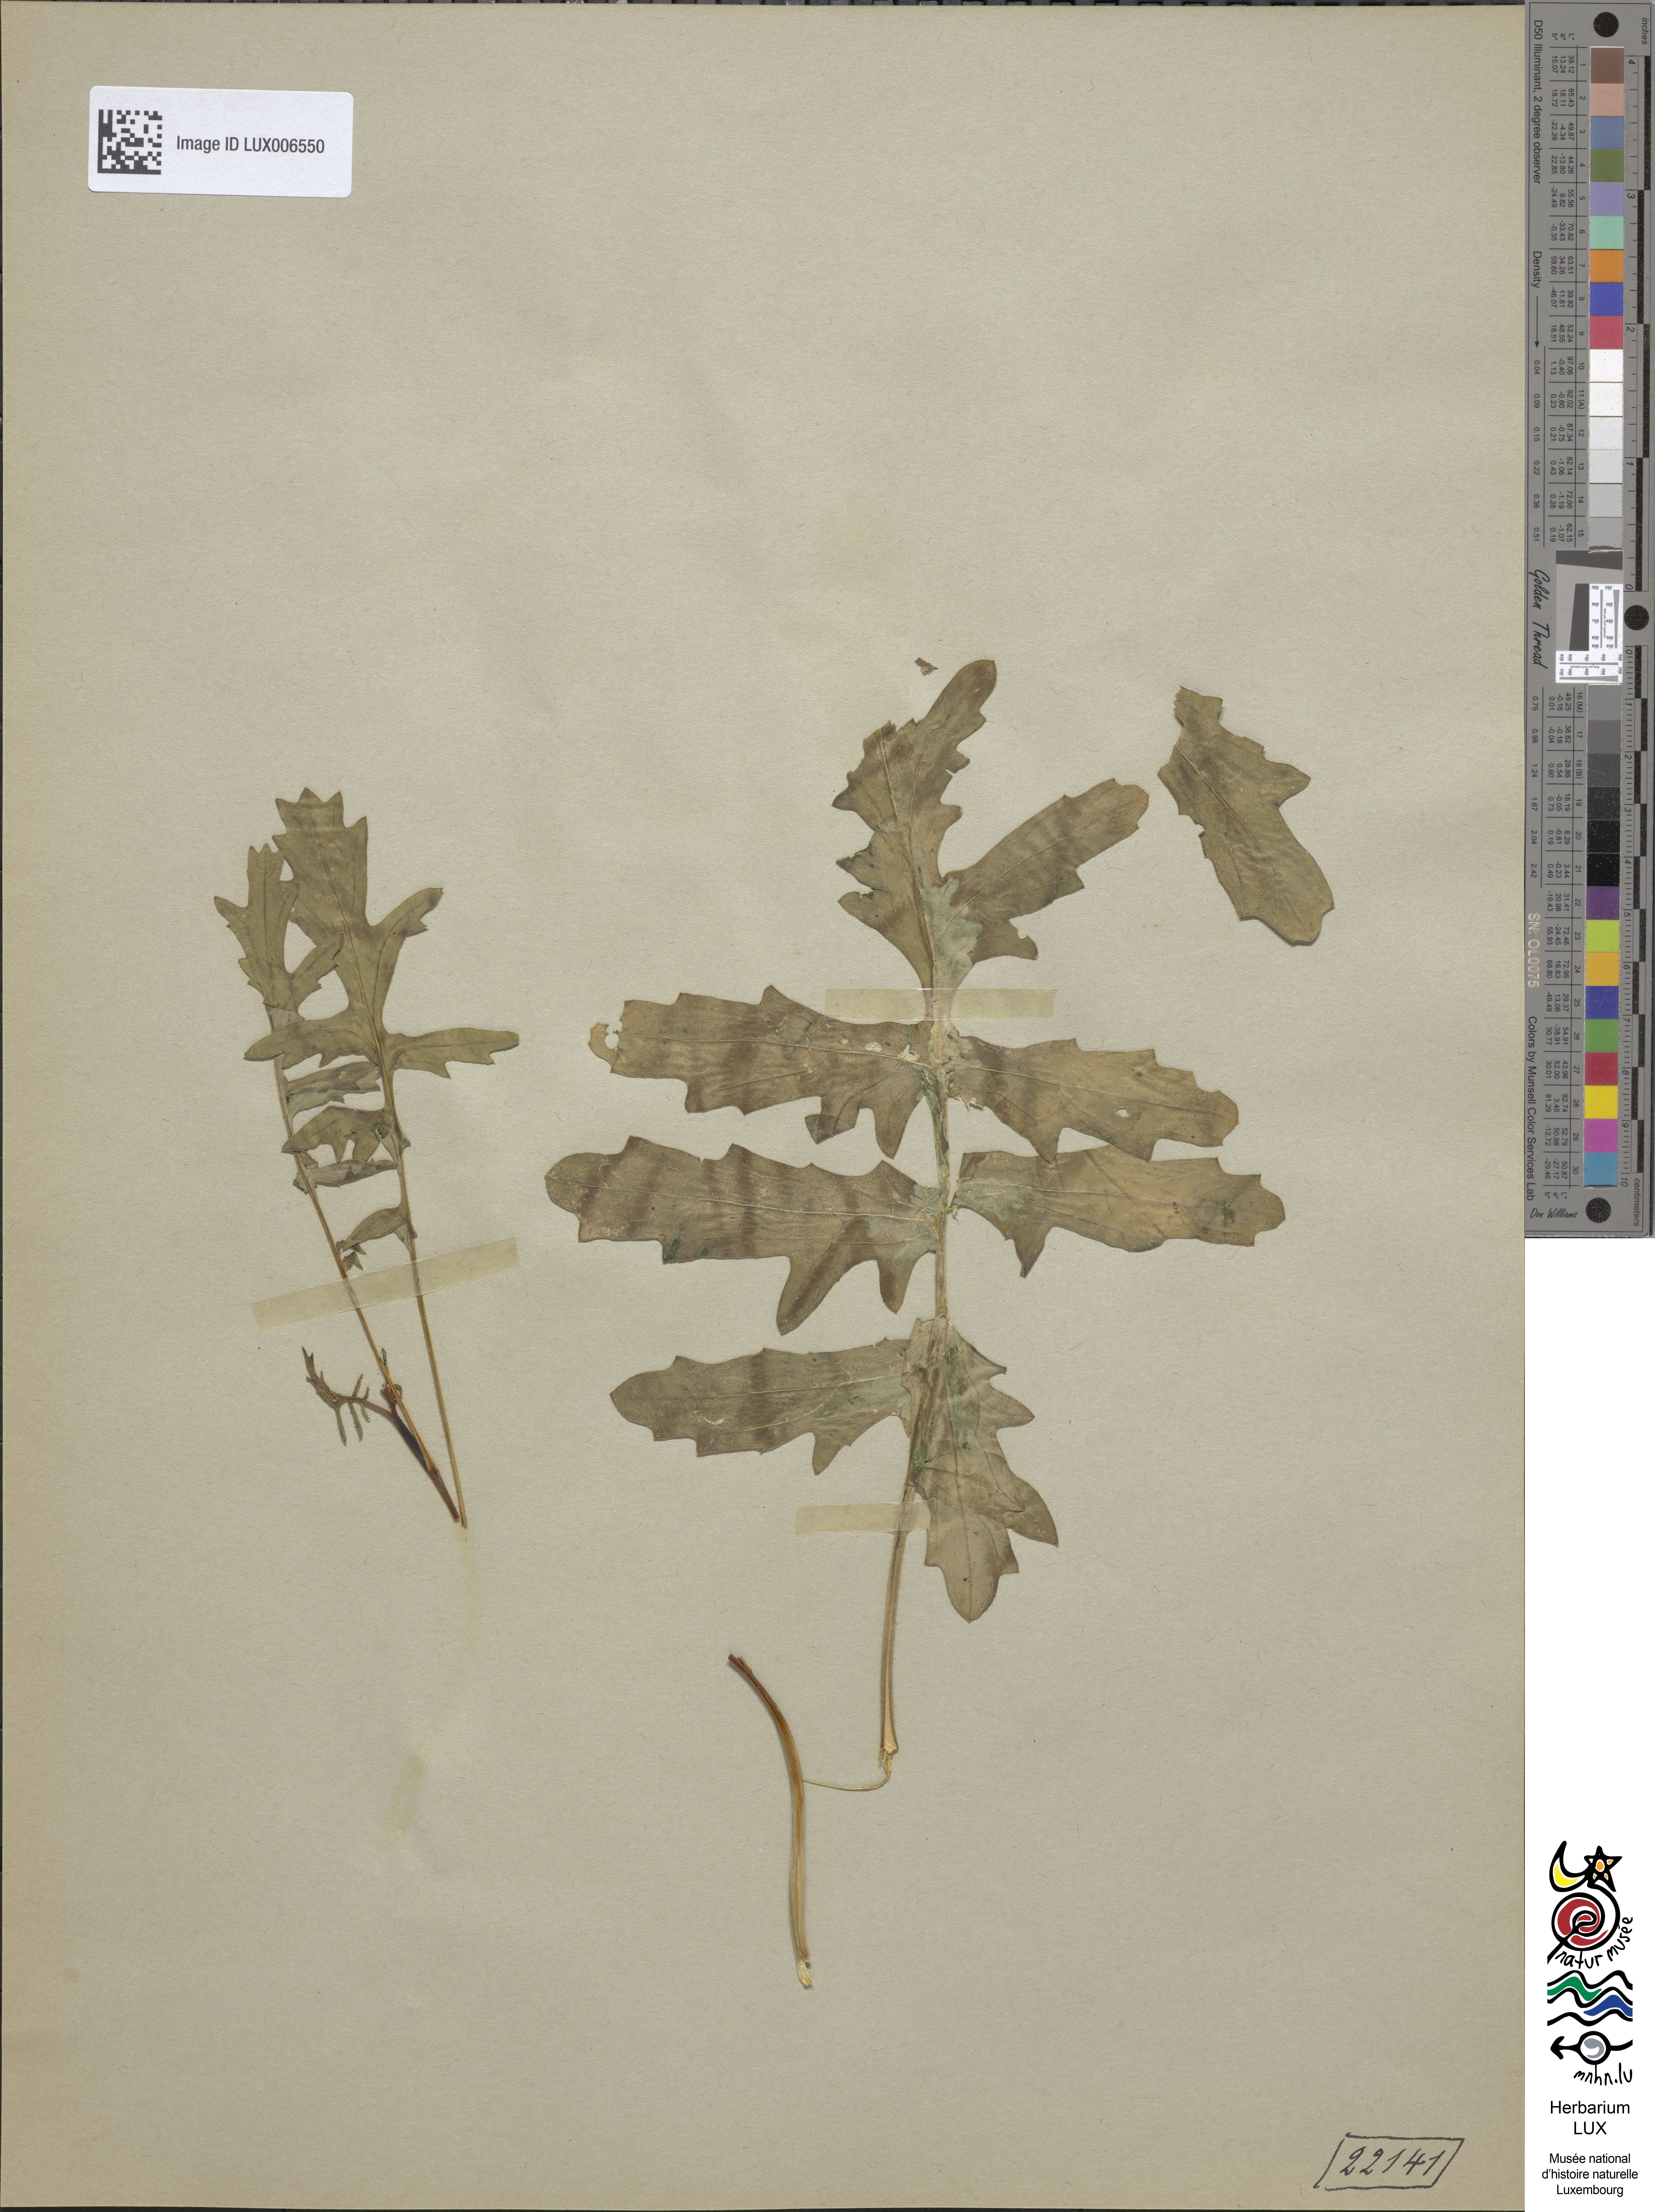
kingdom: Plantae
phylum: Tracheophyta
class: Magnoliopsida
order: Brassicales
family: Brassicaceae
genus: Erucastrum
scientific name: Erucastrum nasturtiifolium
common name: Watercress-leaf rocket
